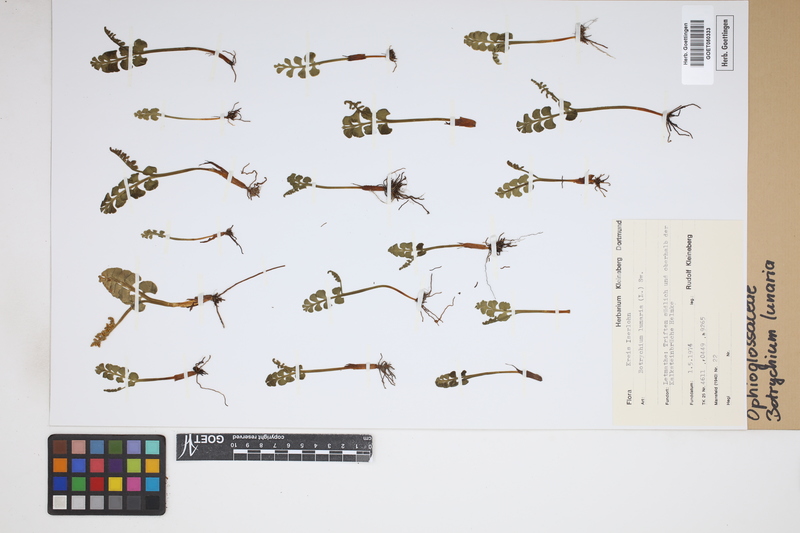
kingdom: Plantae
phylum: Tracheophyta
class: Polypodiopsida
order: Ophioglossales
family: Ophioglossaceae
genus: Botrychium
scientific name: Botrychium lunaria
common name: Moonwort
